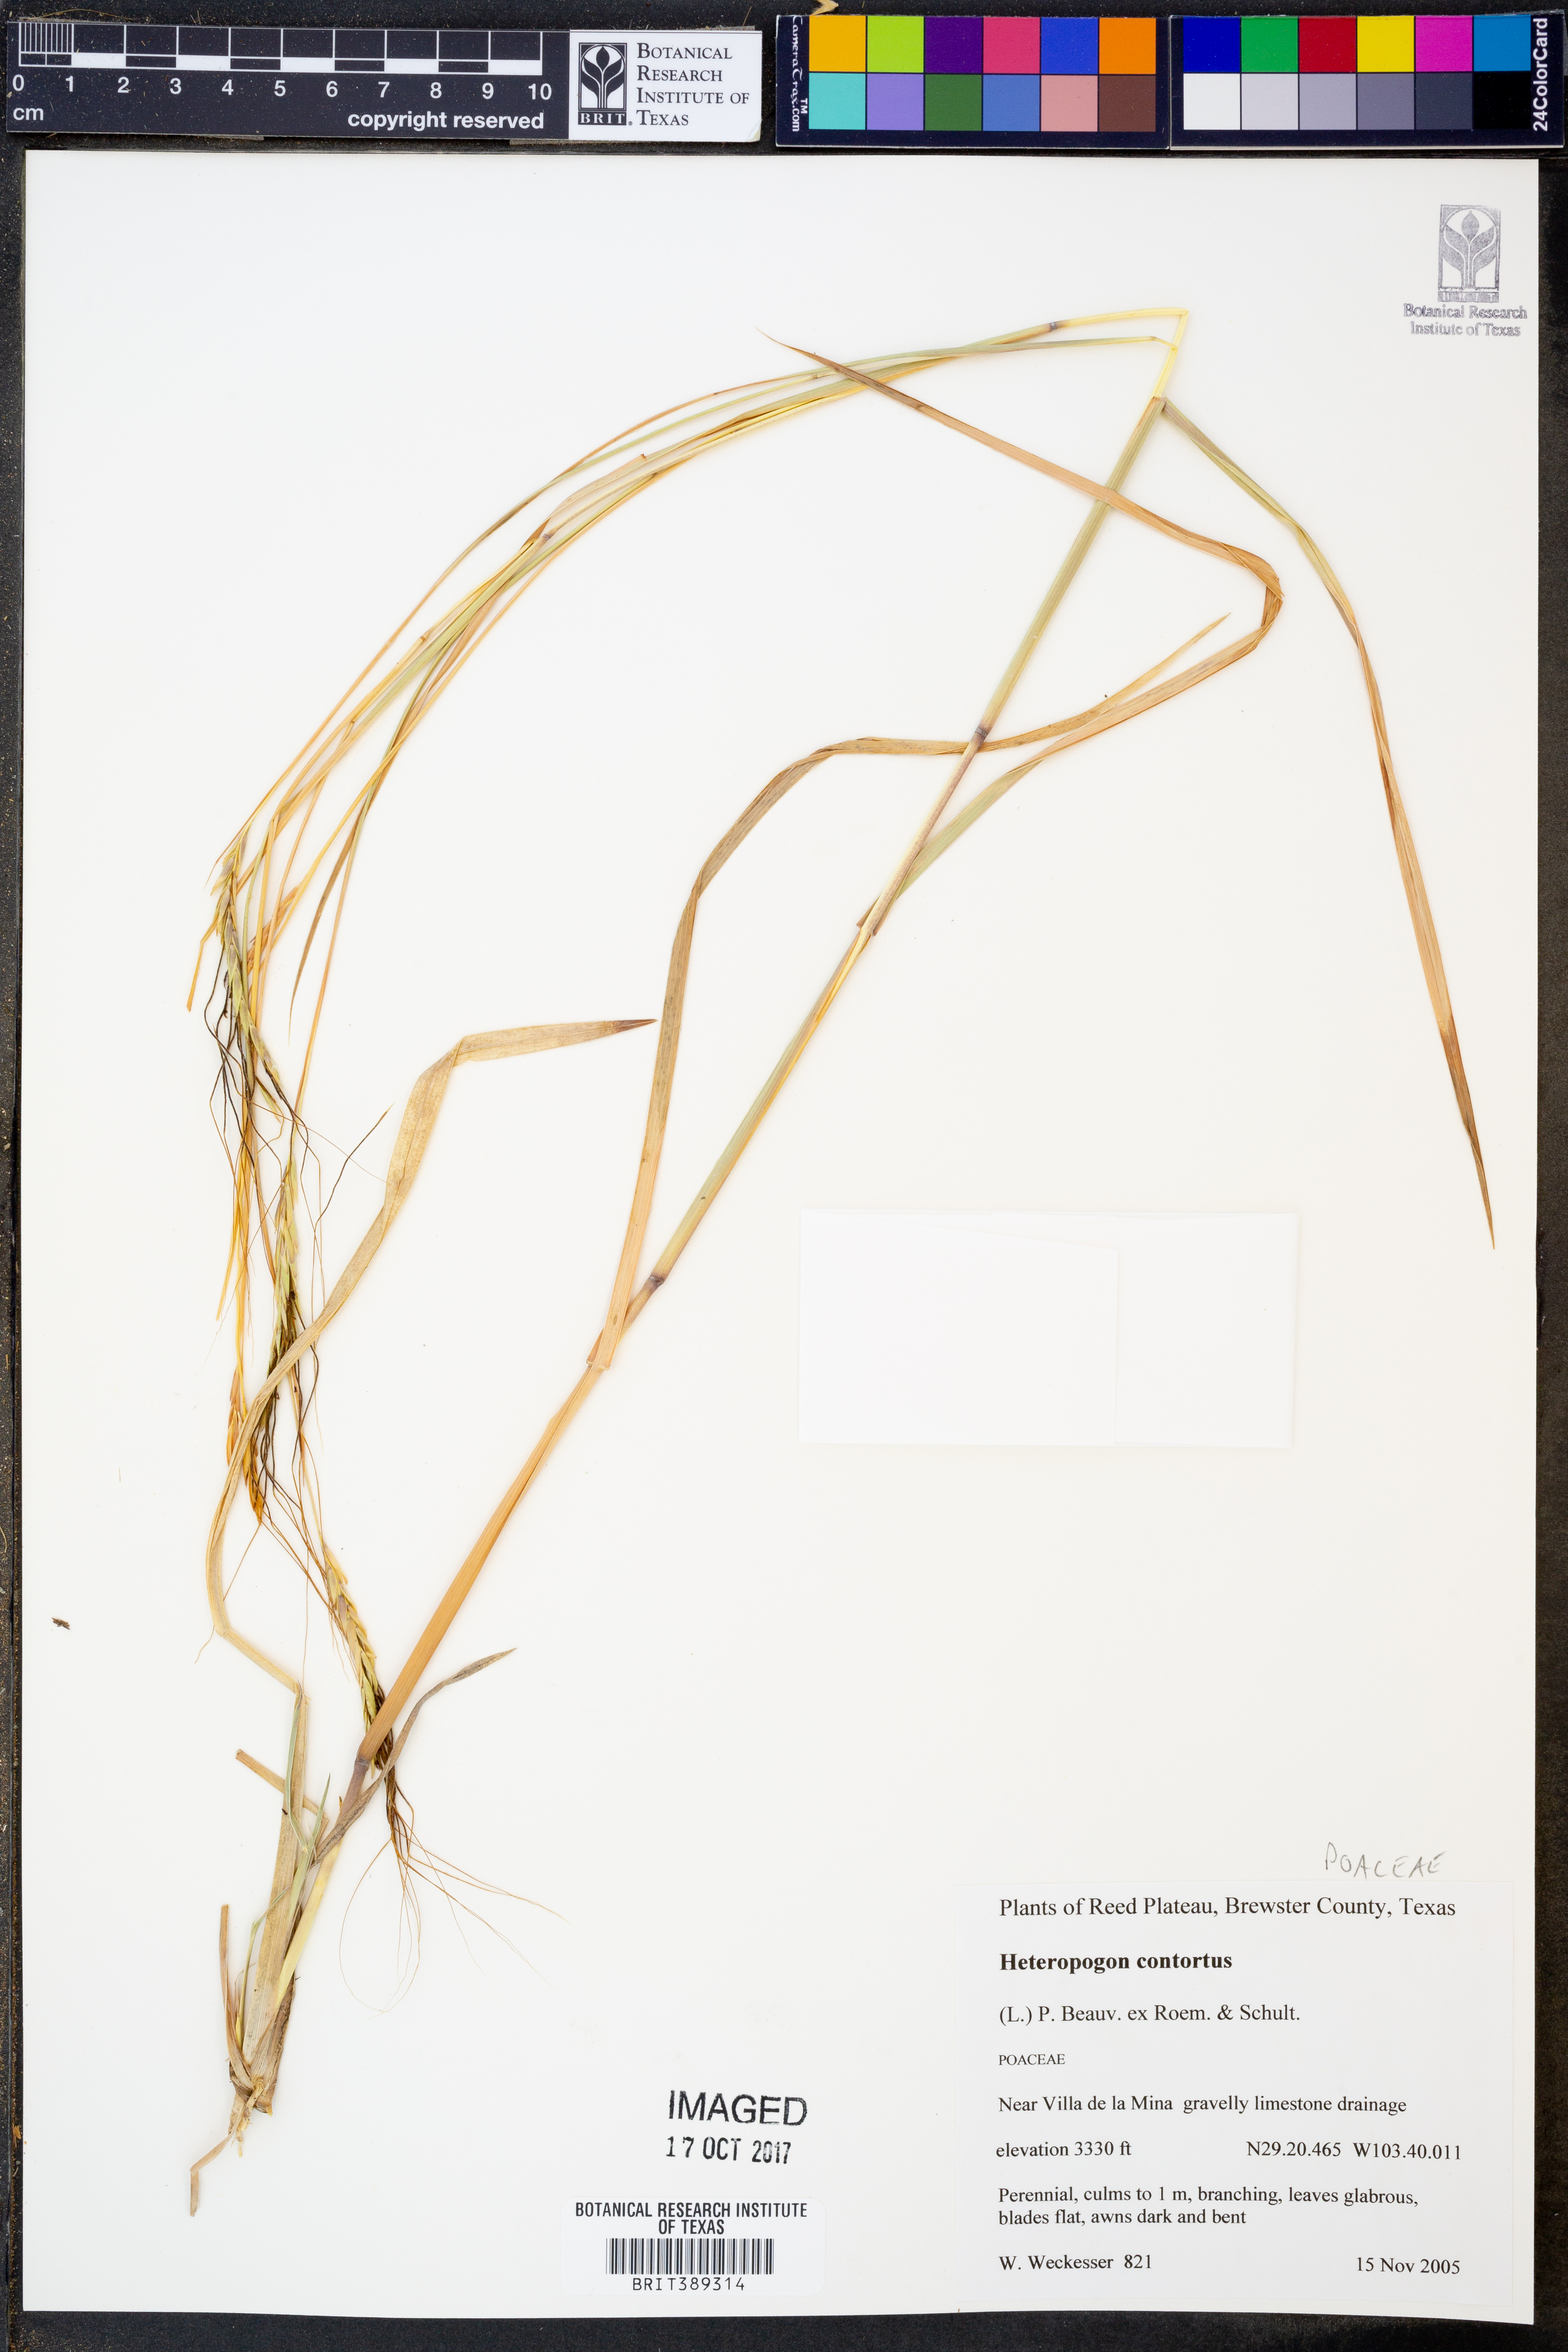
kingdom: Plantae
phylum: Tracheophyta
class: Liliopsida
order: Poales
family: Poaceae
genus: Heteropogon
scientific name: Heteropogon contortus
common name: Tanglehead
